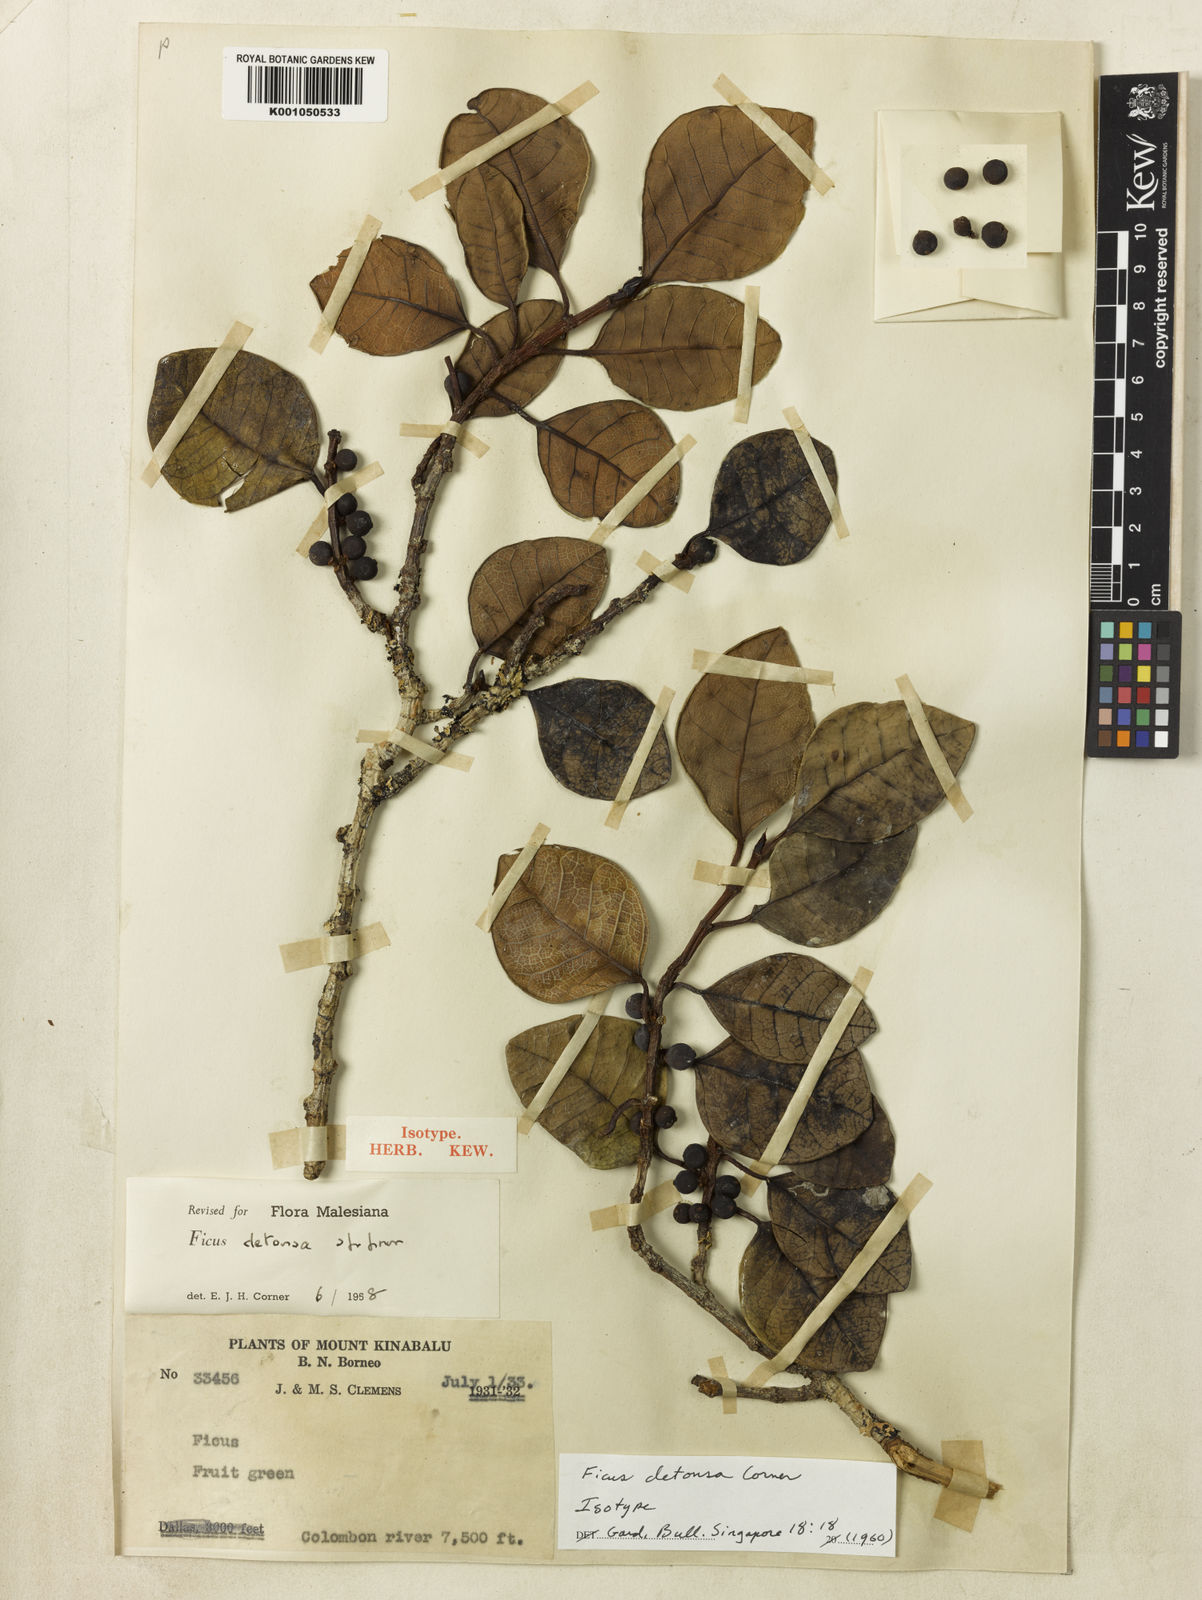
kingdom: Plantae
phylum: Tracheophyta
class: Magnoliopsida
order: Rosales
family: Moraceae
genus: Ficus
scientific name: Ficus detonsa
